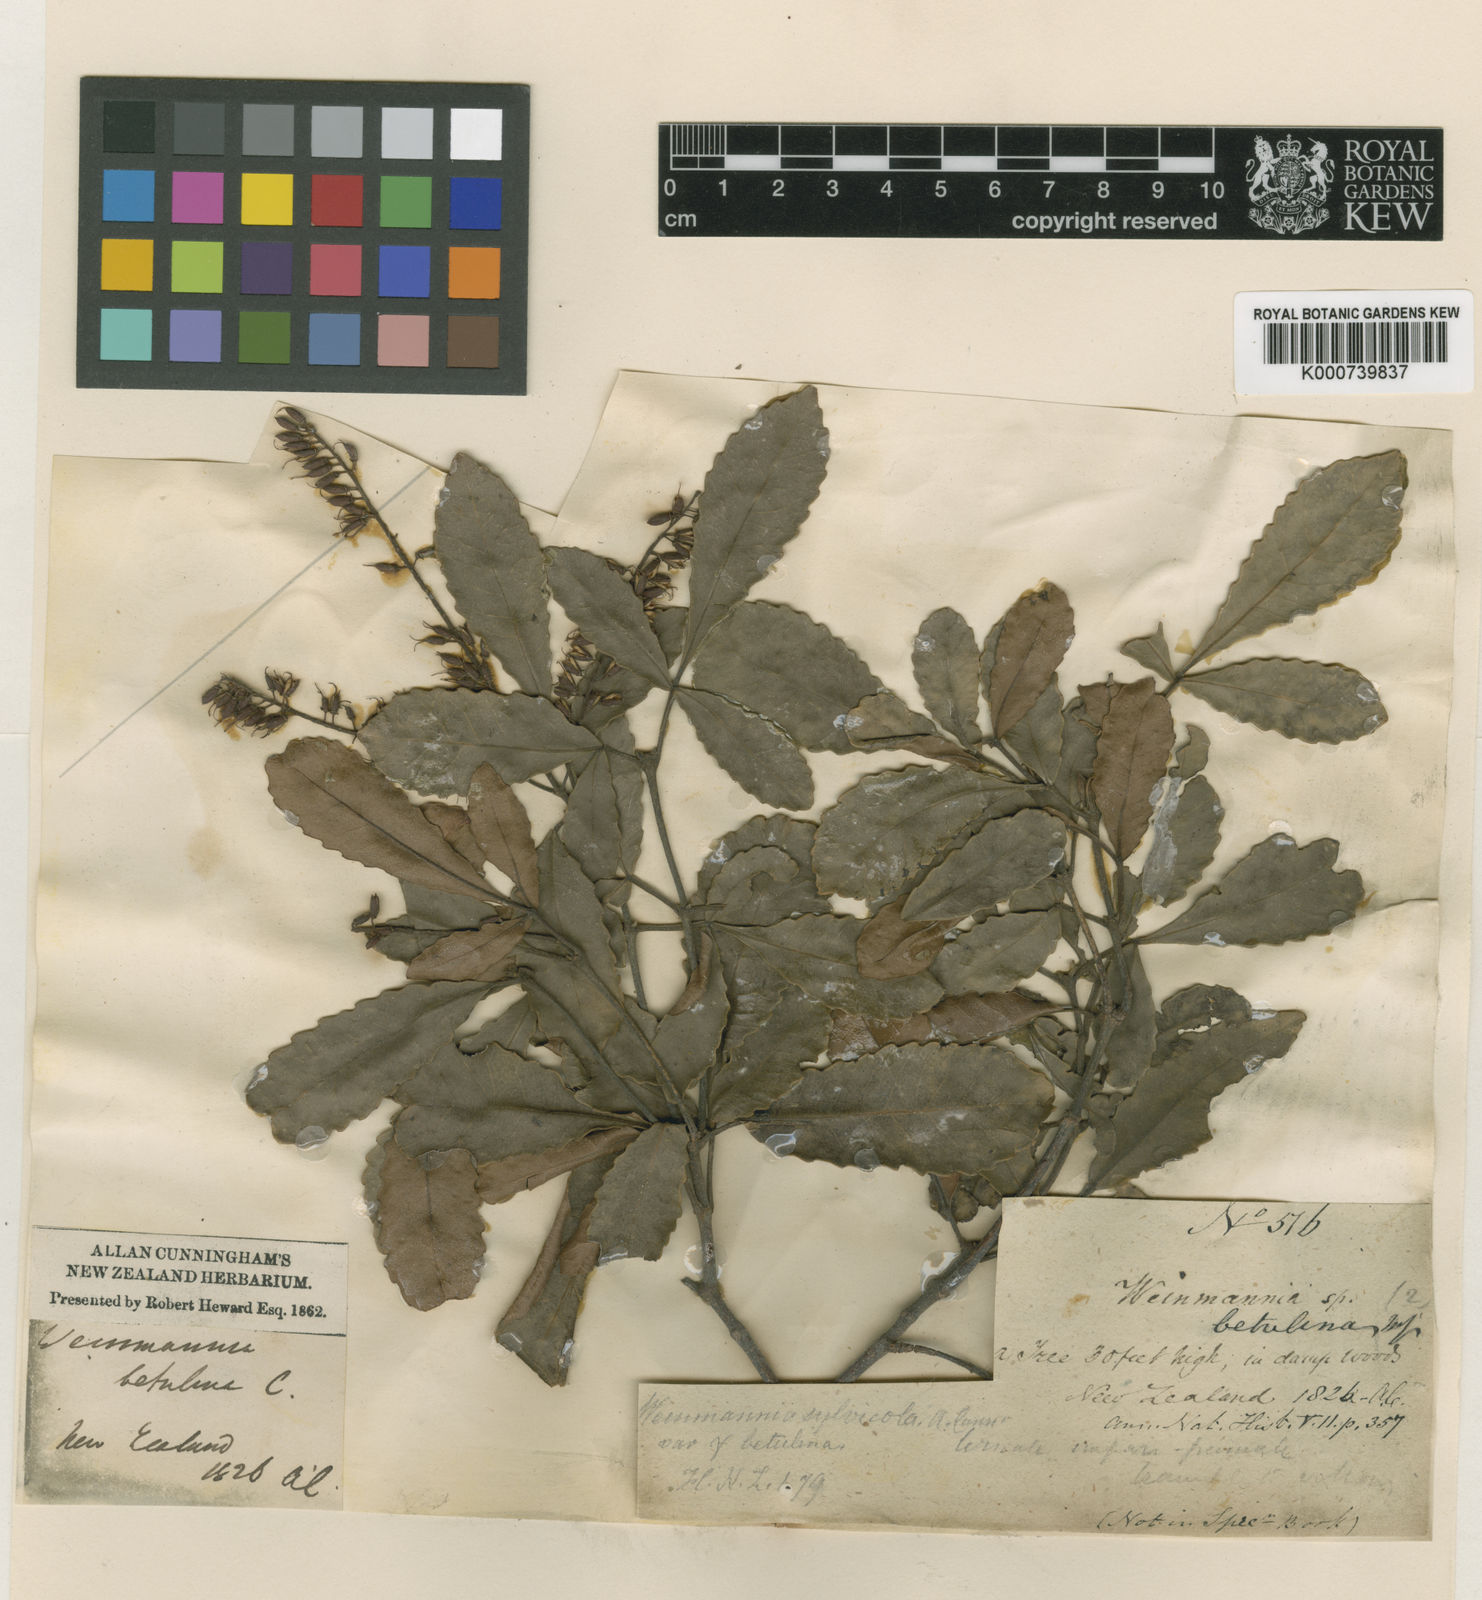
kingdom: Plantae
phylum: Tracheophyta
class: Magnoliopsida
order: Oxalidales
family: Cunoniaceae
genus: Pterophylla
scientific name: Pterophylla sylvicola
